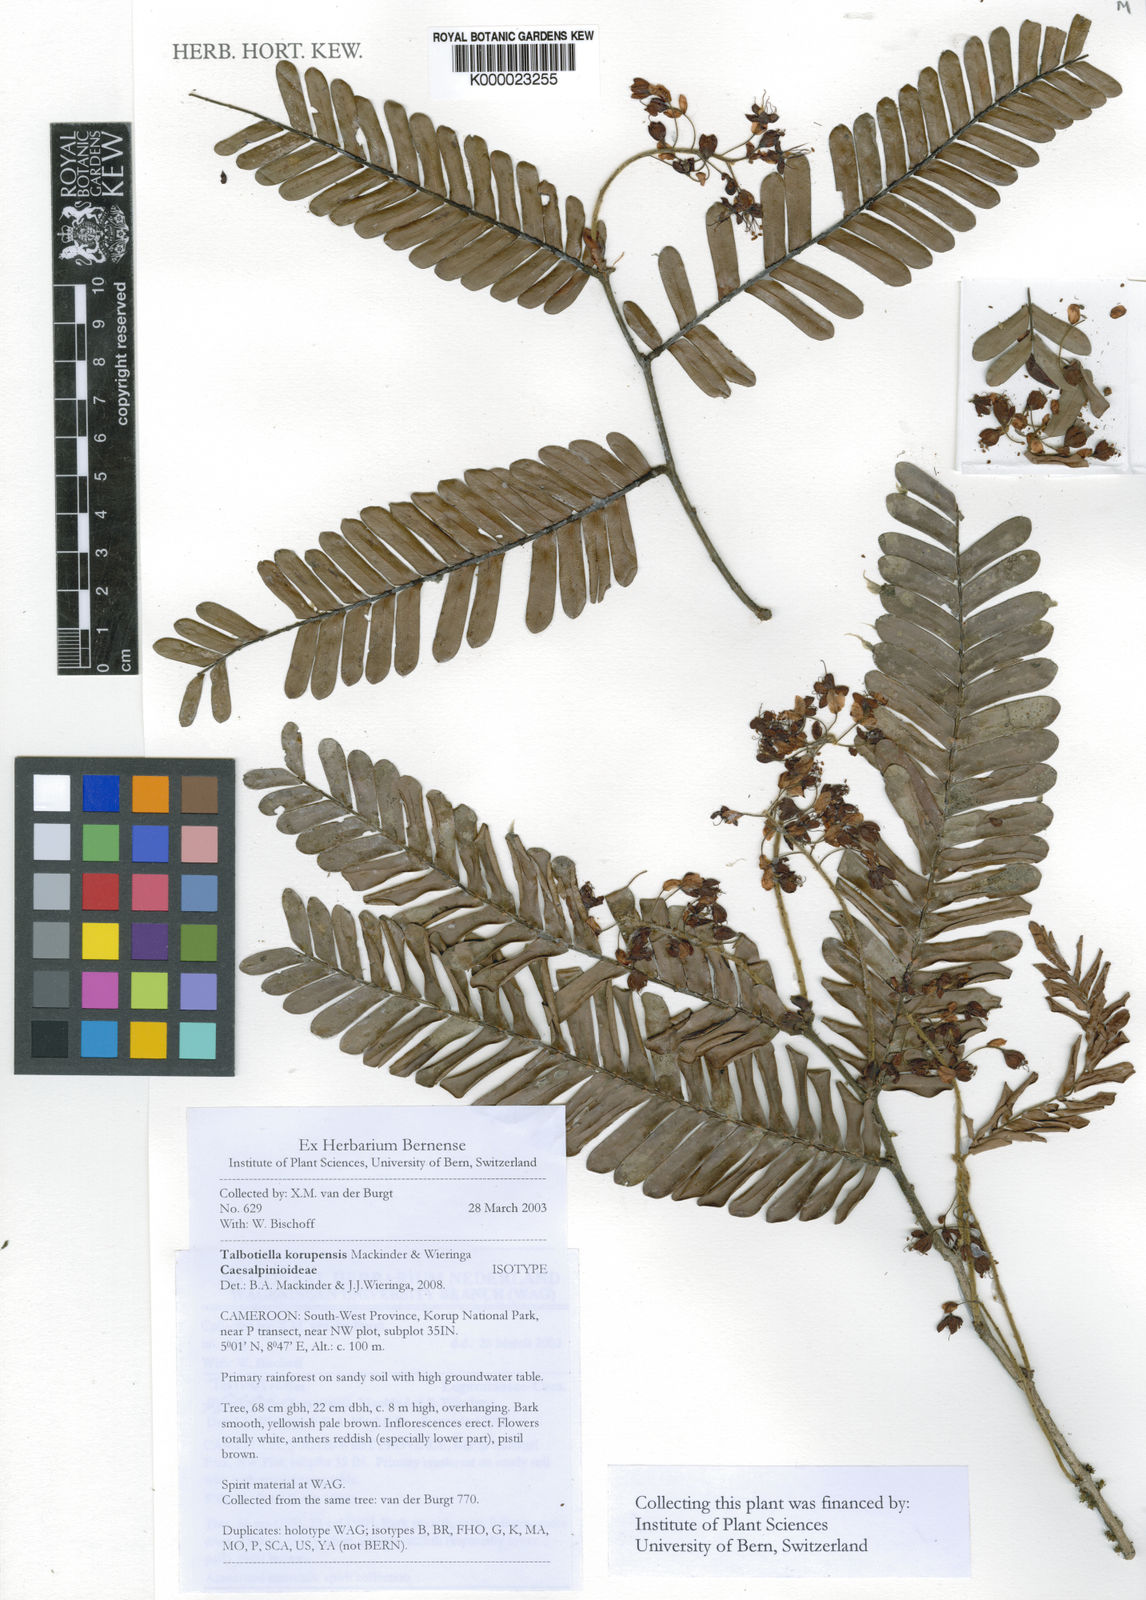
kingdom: Plantae
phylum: Tracheophyta
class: Magnoliopsida
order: Fabales
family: Fabaceae
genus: Talbotiella
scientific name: Talbotiella korupensis
